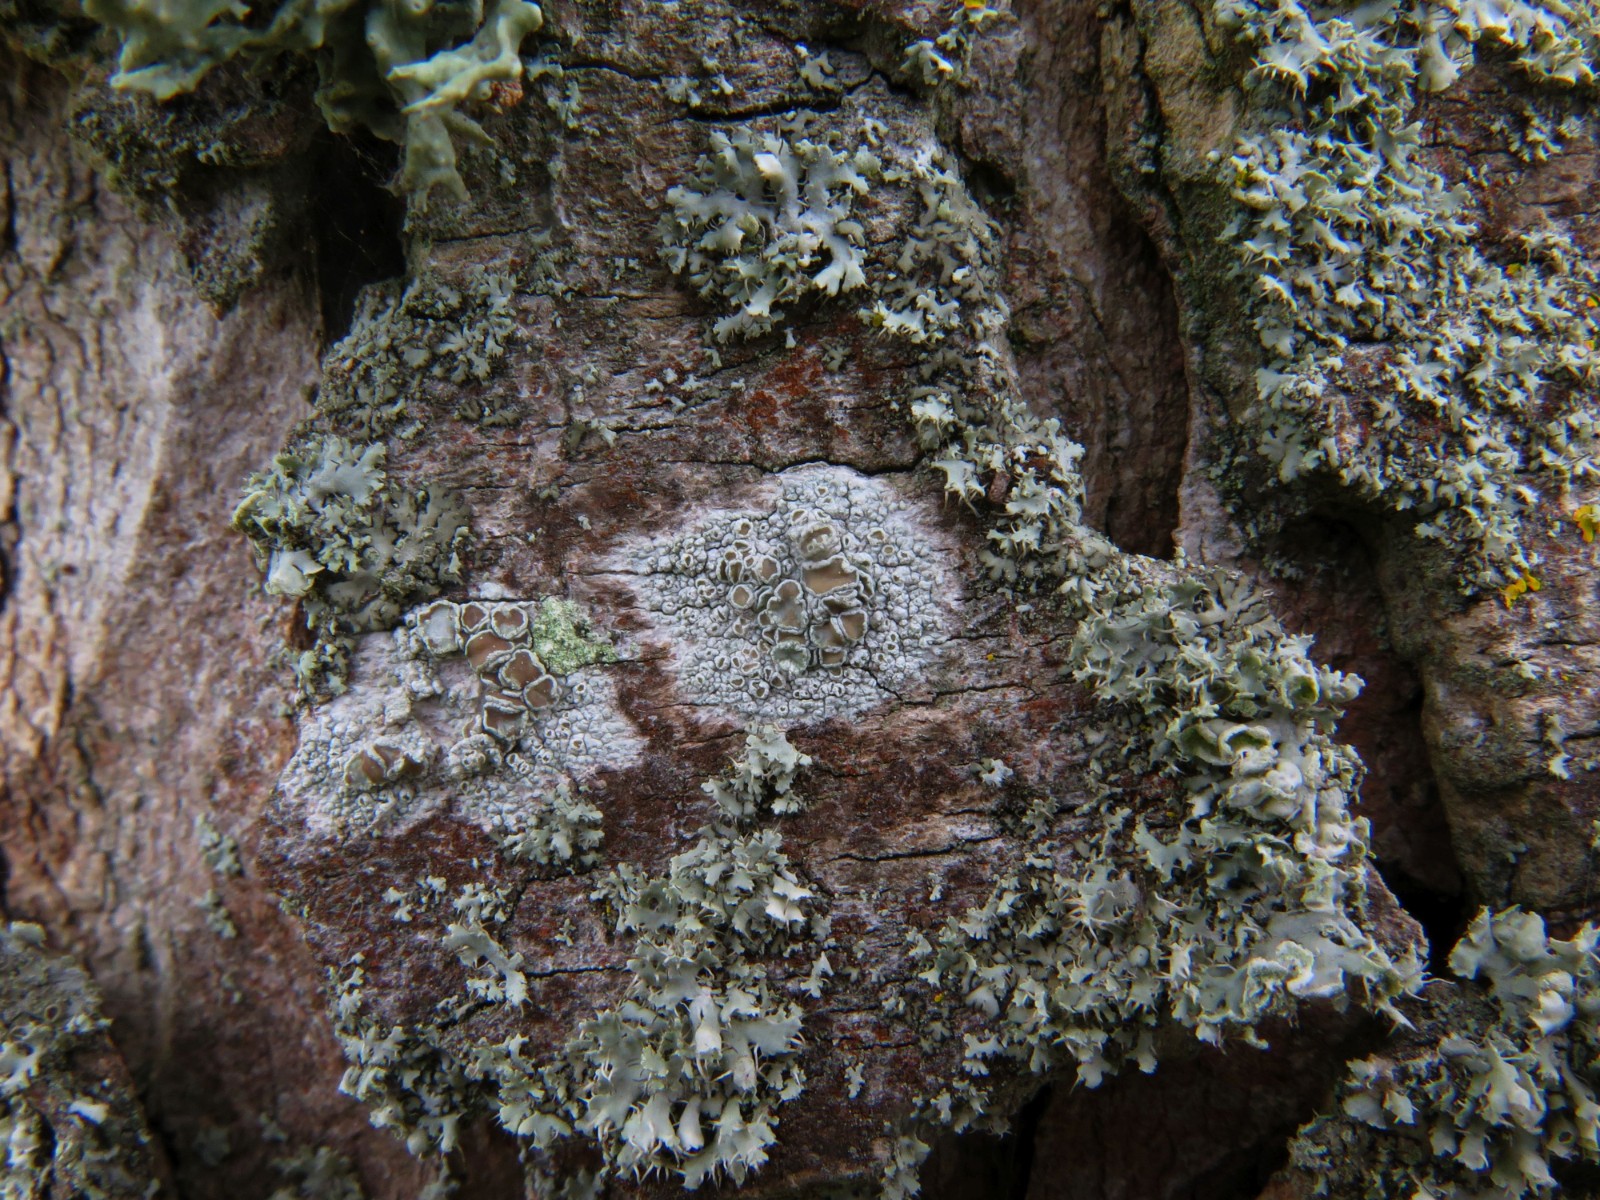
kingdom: Fungi
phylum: Ascomycota
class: Lecanoromycetes
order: Lecanorales
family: Lecanoraceae
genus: Lecanora
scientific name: Lecanora chlarotera
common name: brun kantskivelav
